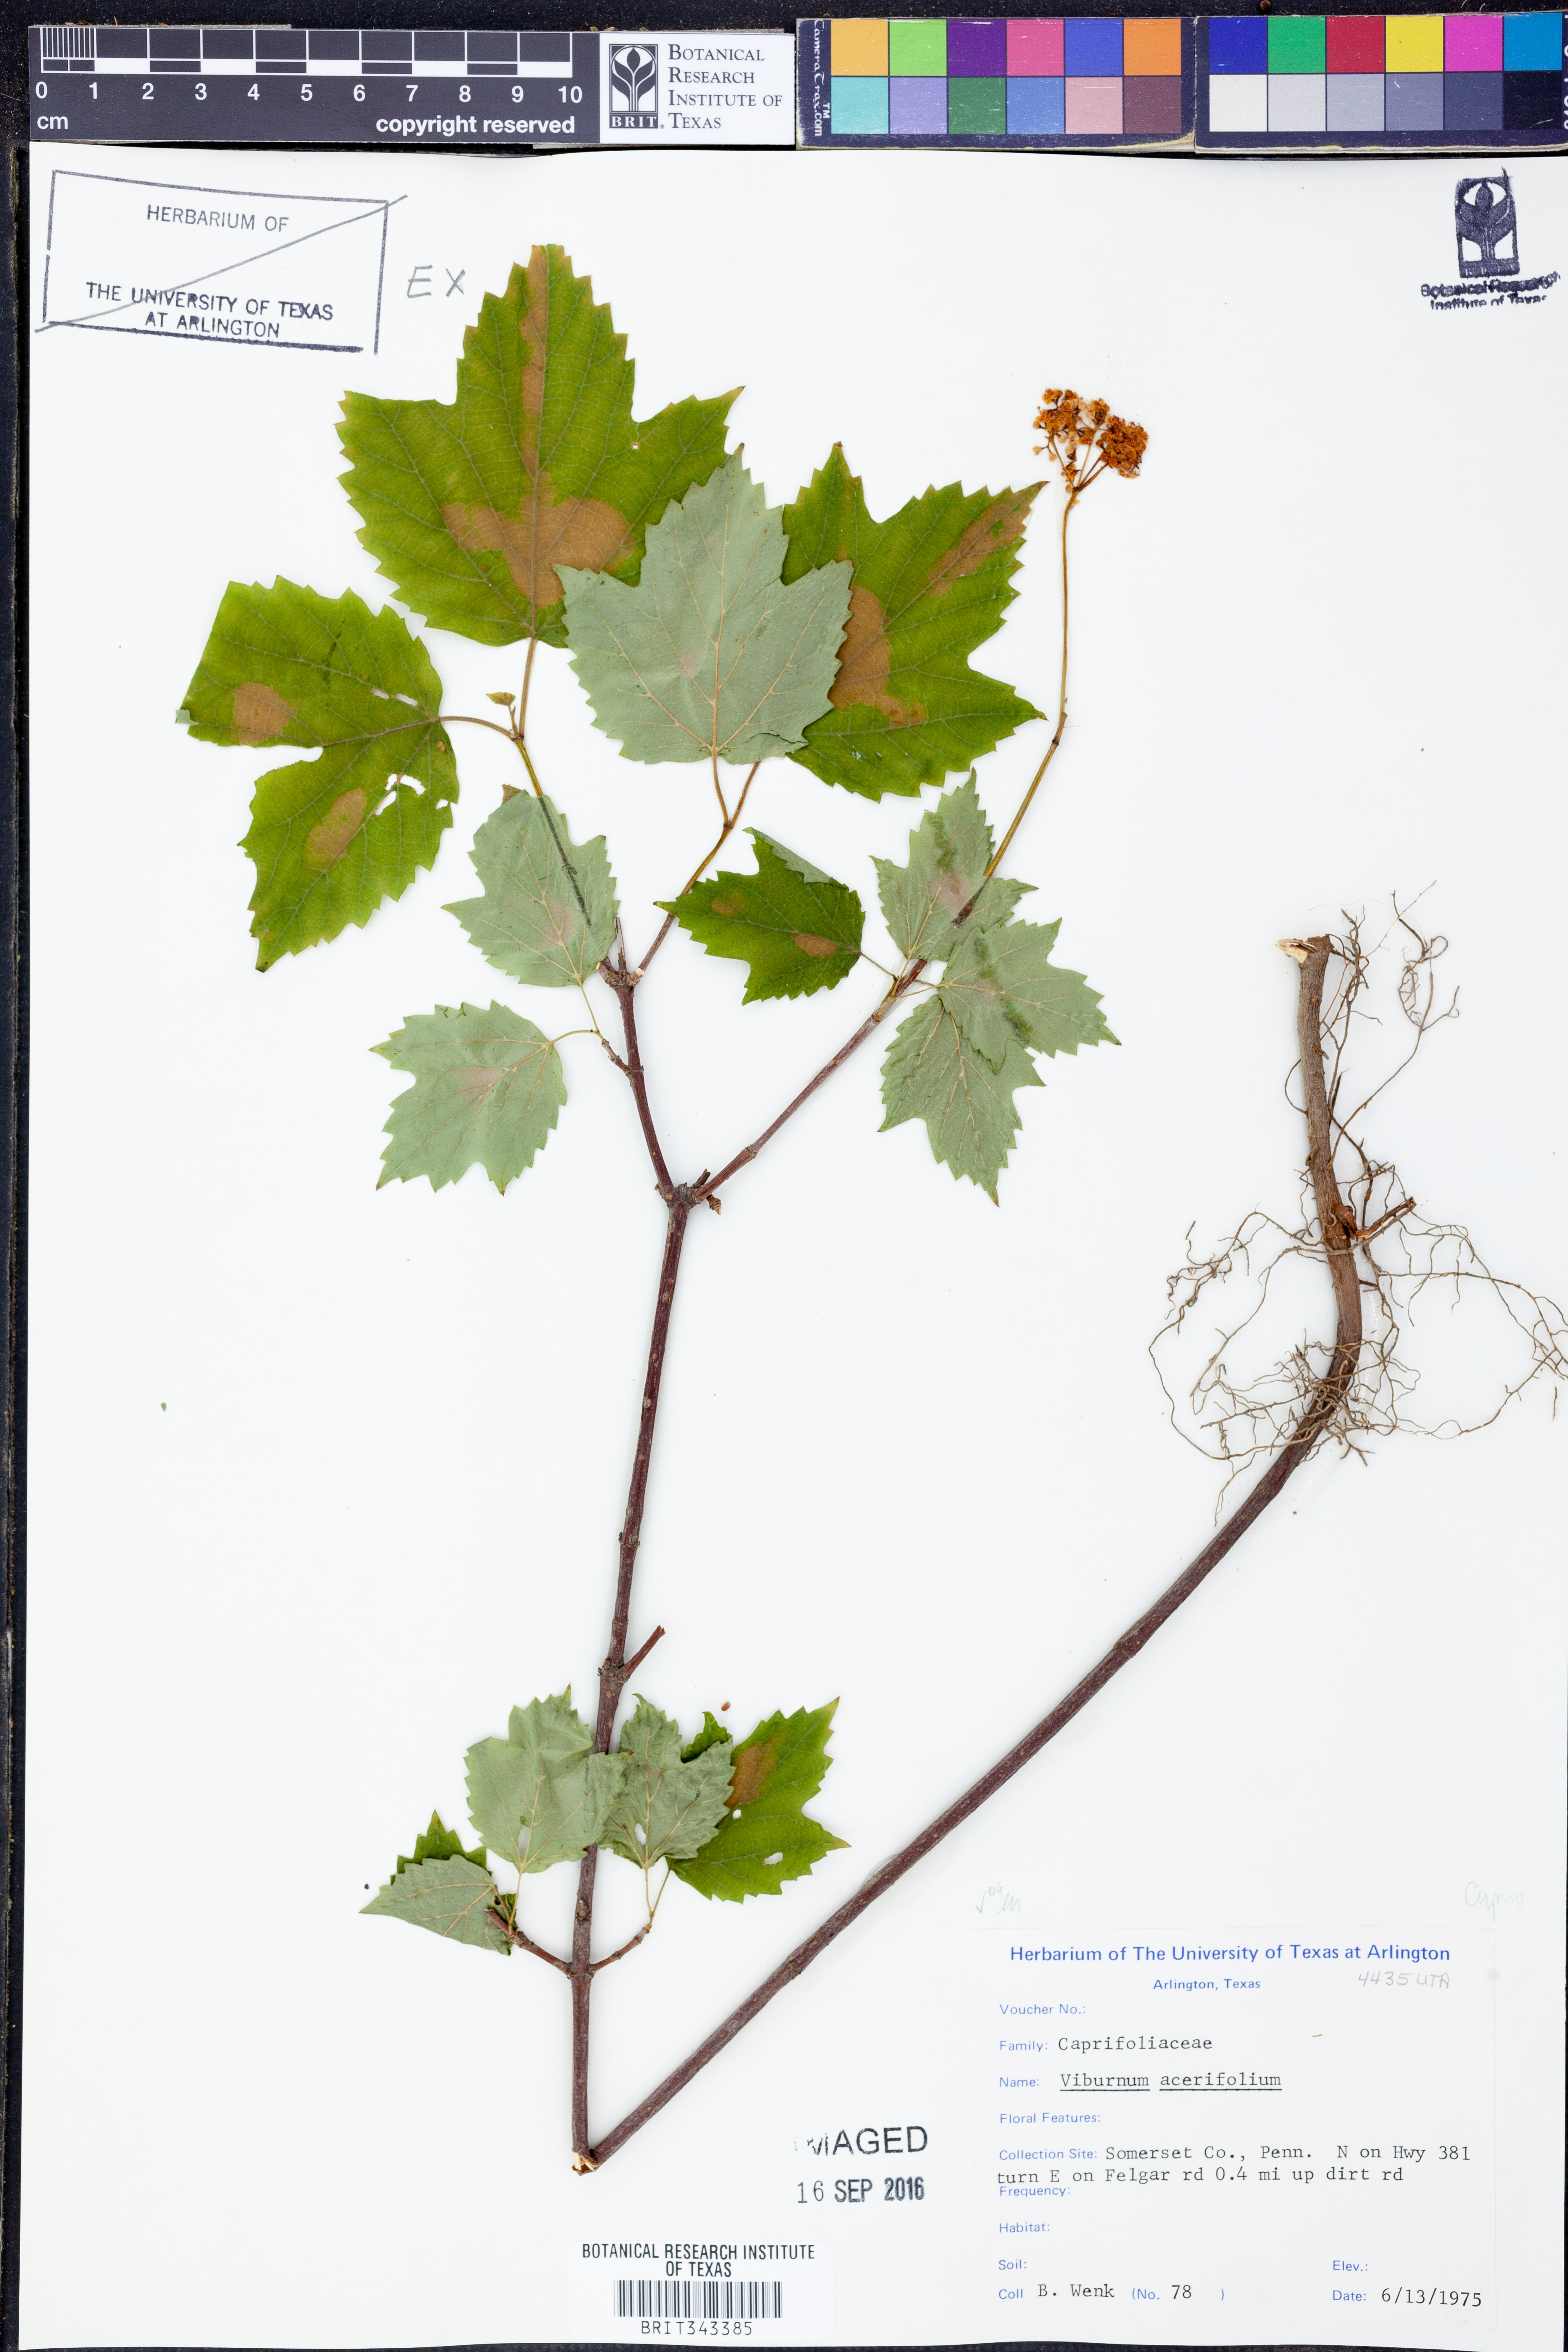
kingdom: Plantae
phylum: Tracheophyta
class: Magnoliopsida
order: Dipsacales
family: Viburnaceae
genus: Viburnum
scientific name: Viburnum acerifolium
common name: Dockmackie
